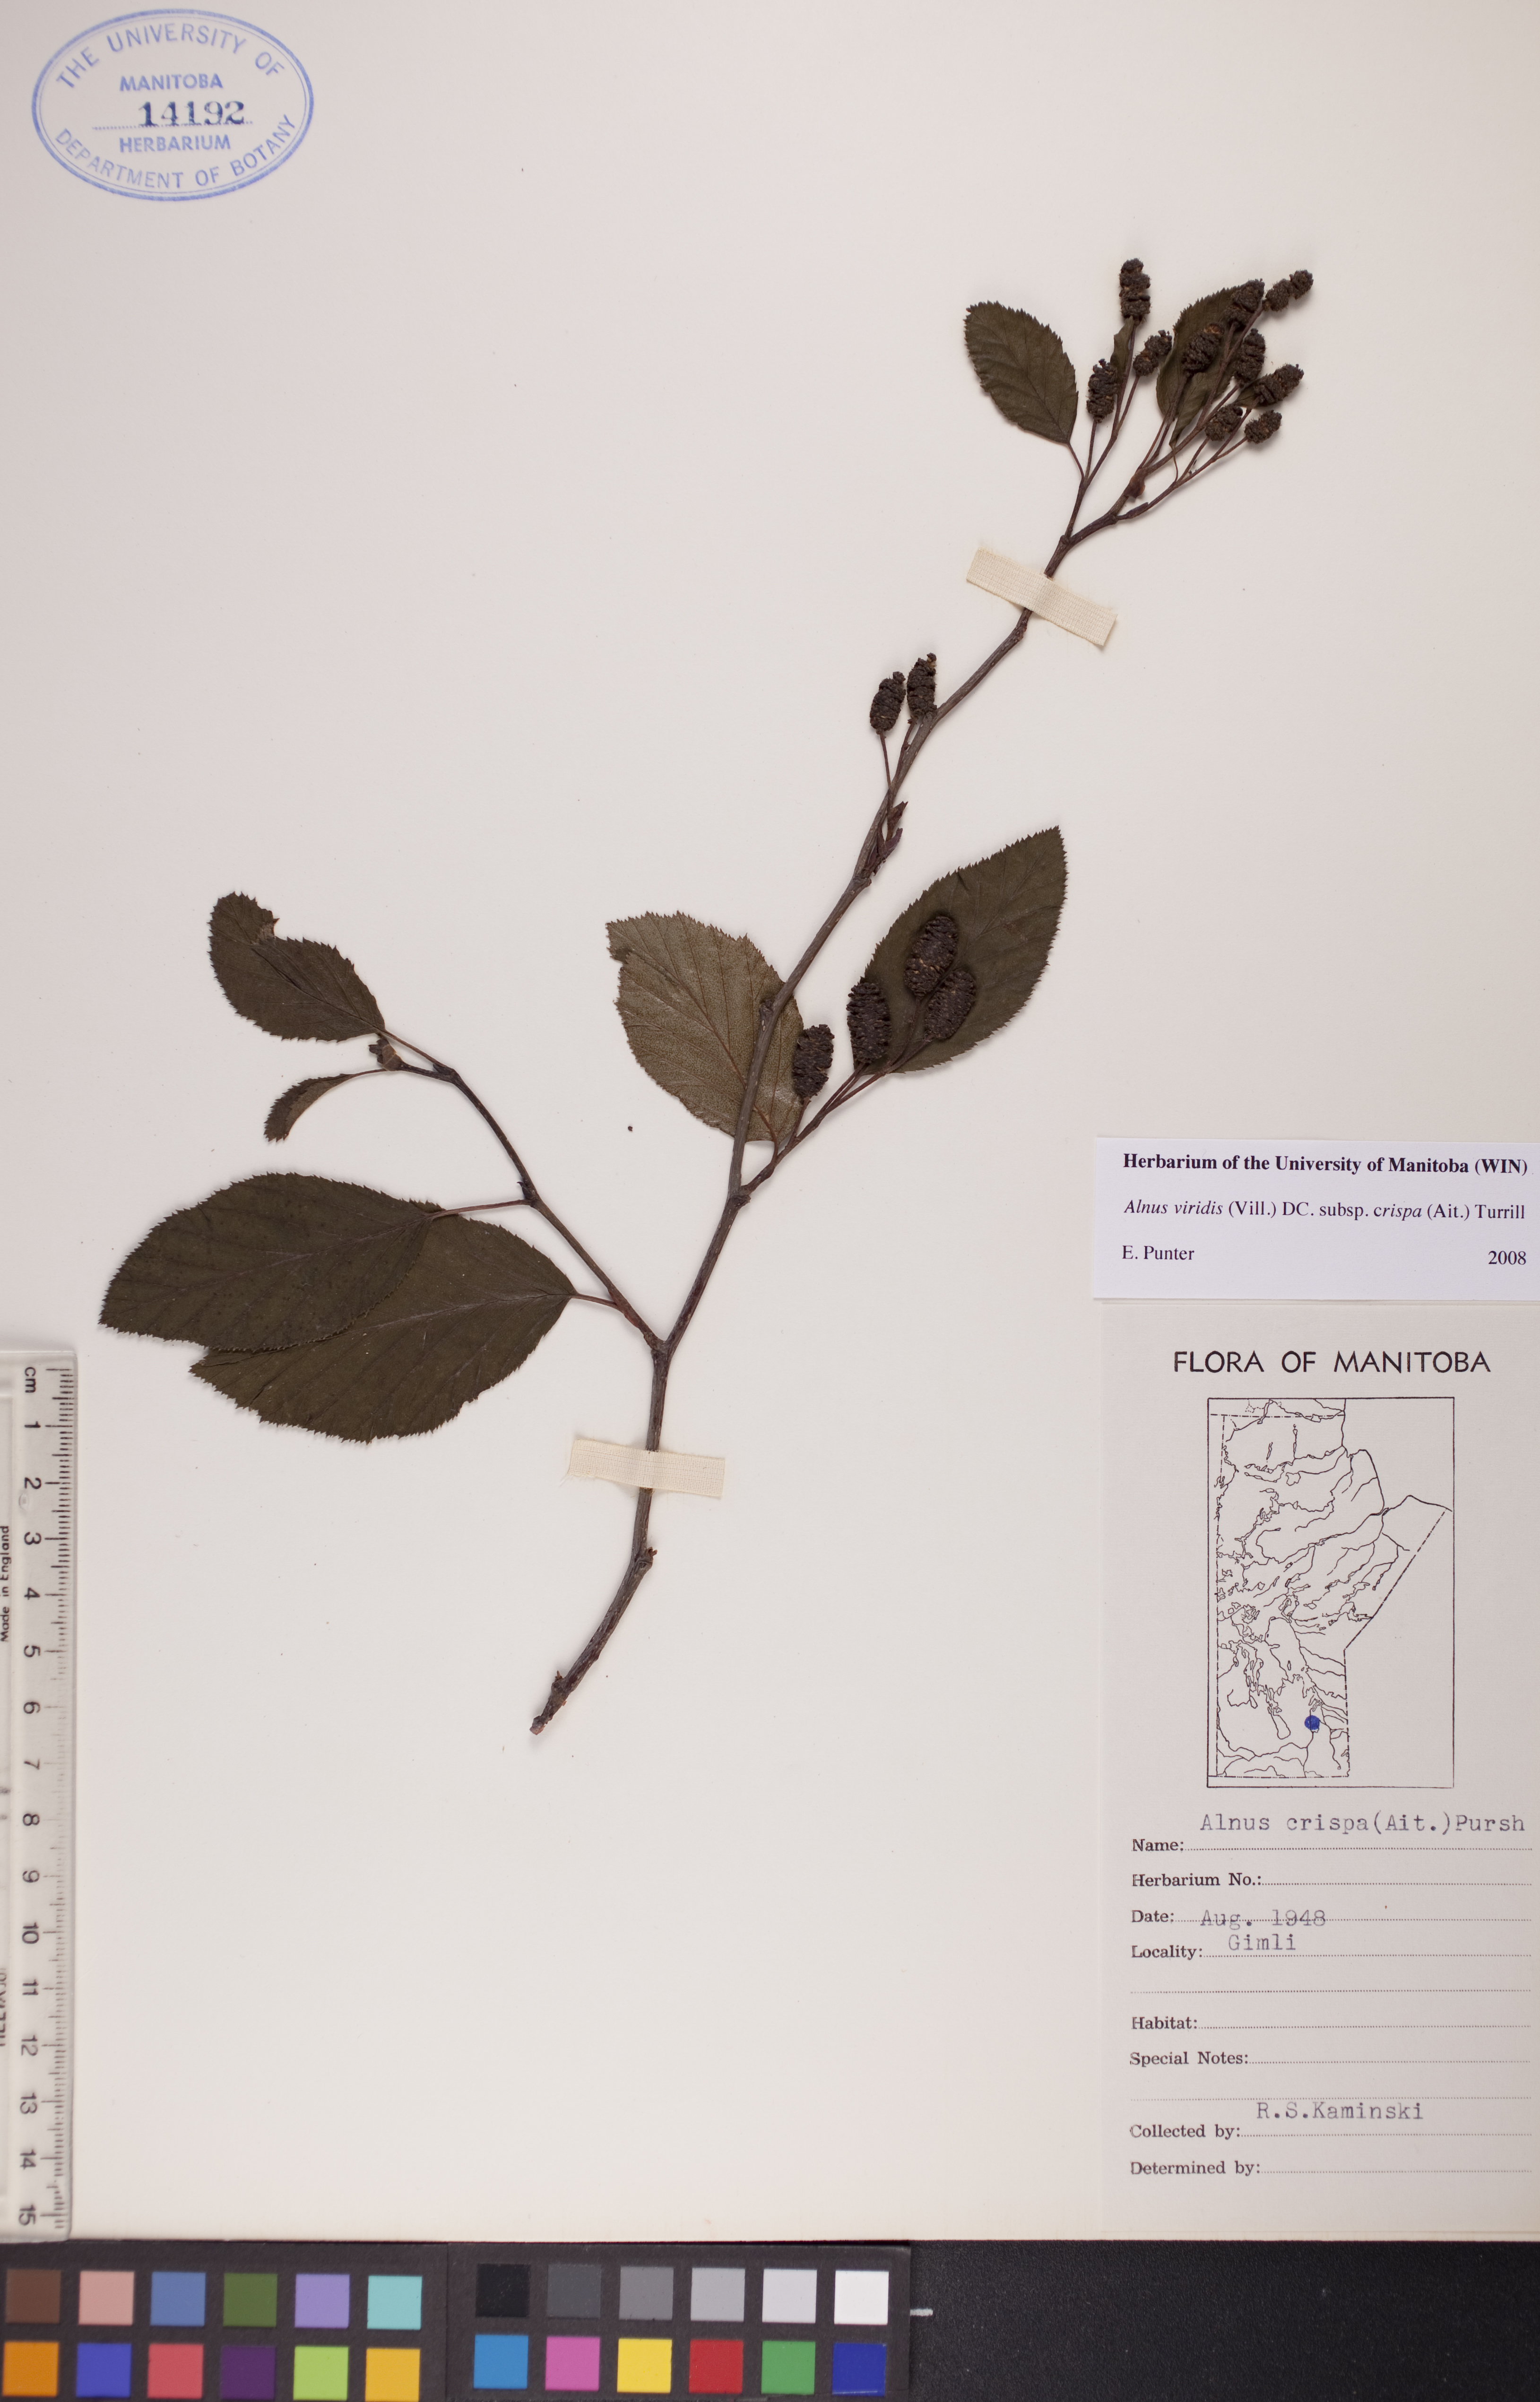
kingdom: Plantae
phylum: Tracheophyta
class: Magnoliopsida
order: Fagales
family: Betulaceae
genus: Alnus
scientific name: Alnus alnobetula
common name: Green alder
